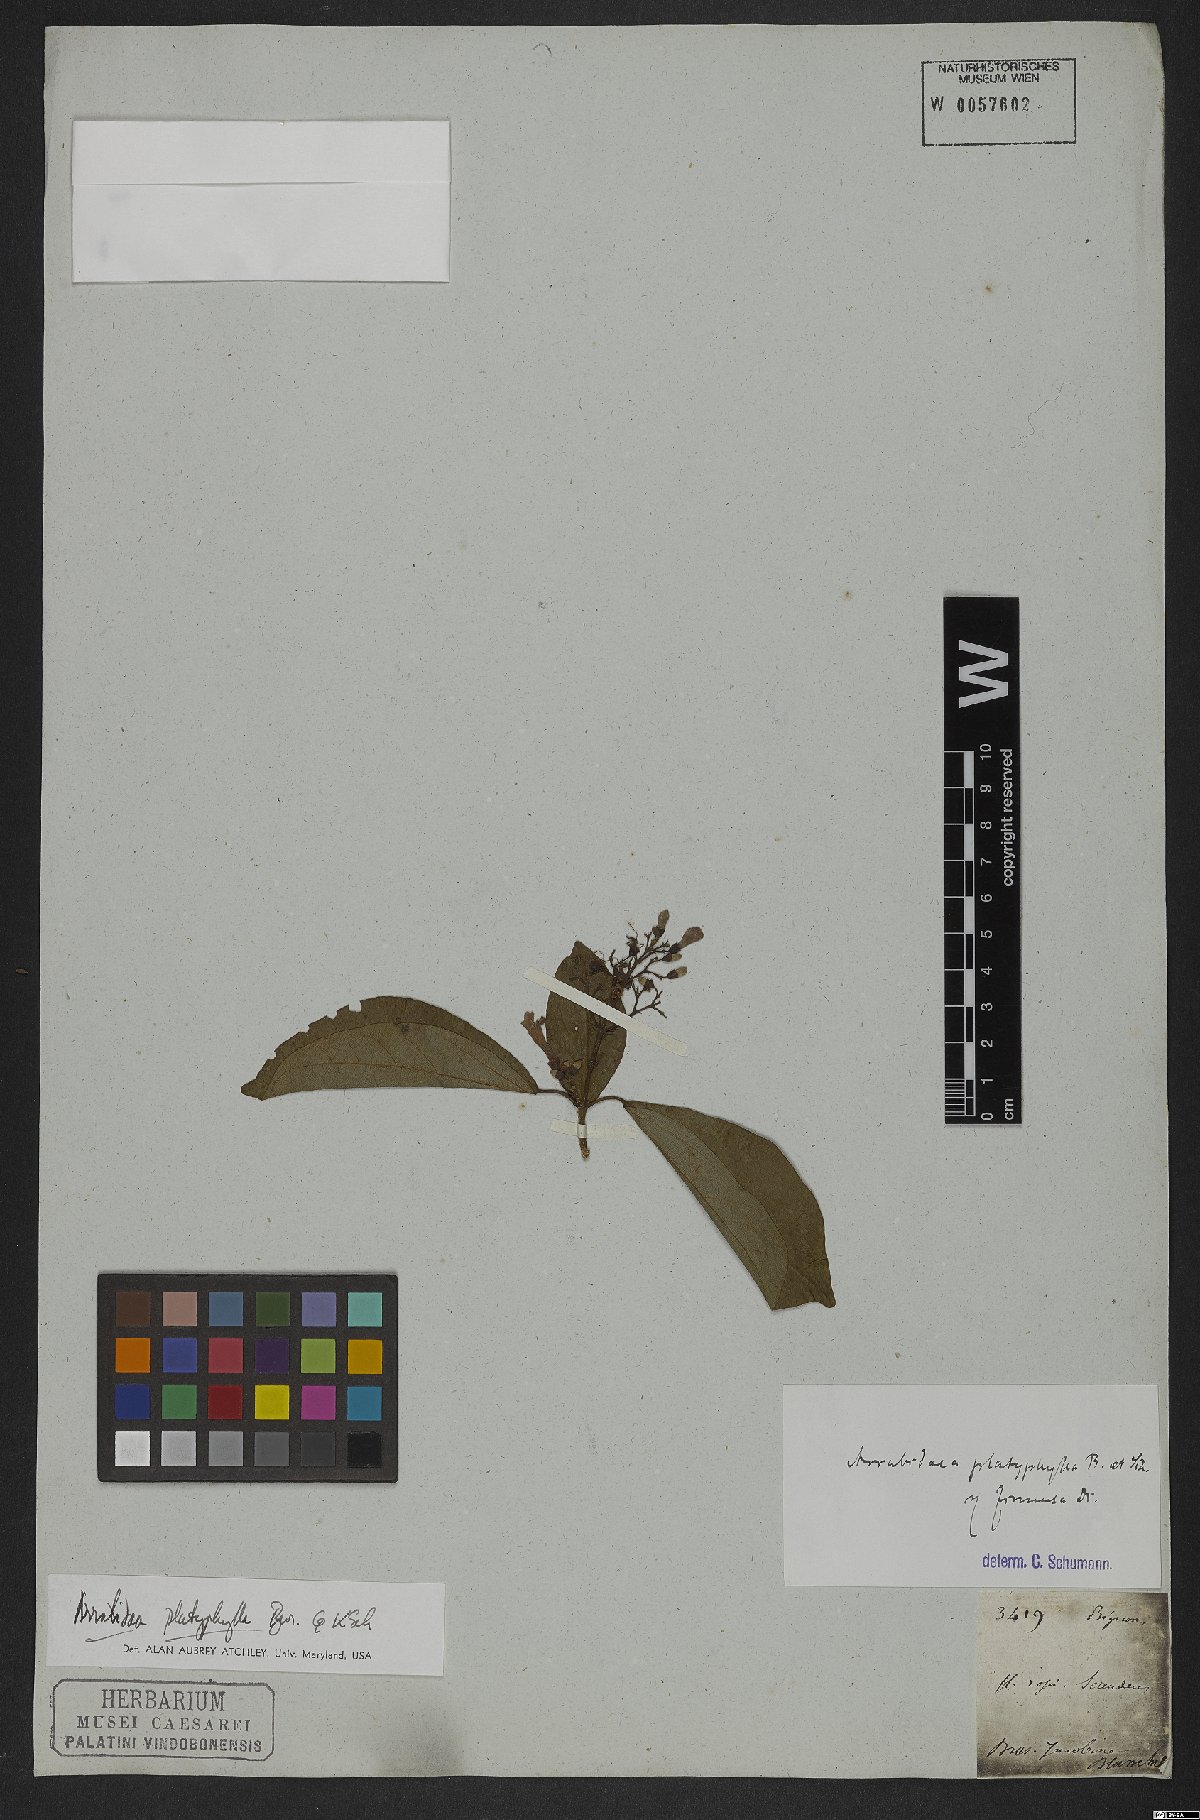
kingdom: Plantae
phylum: Tracheophyta
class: Magnoliopsida
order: Lamiales
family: Bignoniaceae
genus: Xylophragma
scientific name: Xylophragma platyphyllum
